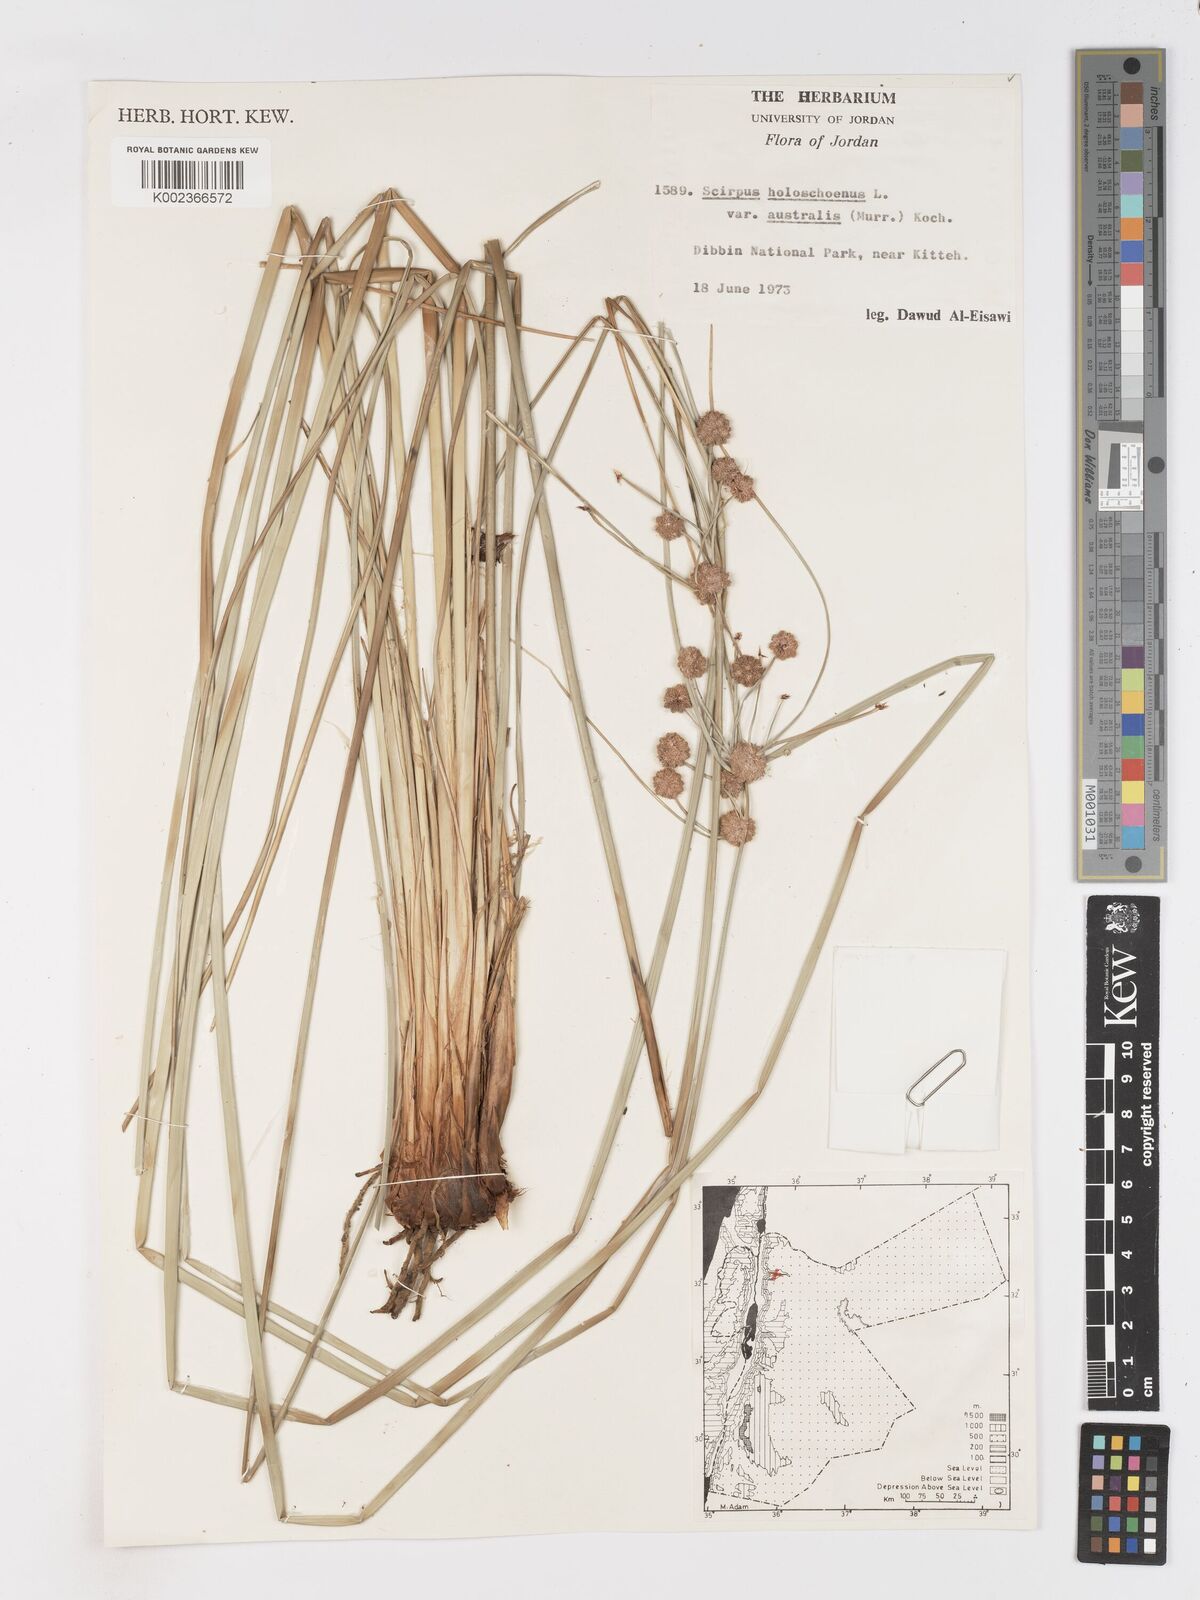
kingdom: Plantae
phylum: Tracheophyta
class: Liliopsida
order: Poales
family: Cyperaceae
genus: Scirpoides
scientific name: Scirpoides holoschoenus
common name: Round-headed club-rush
